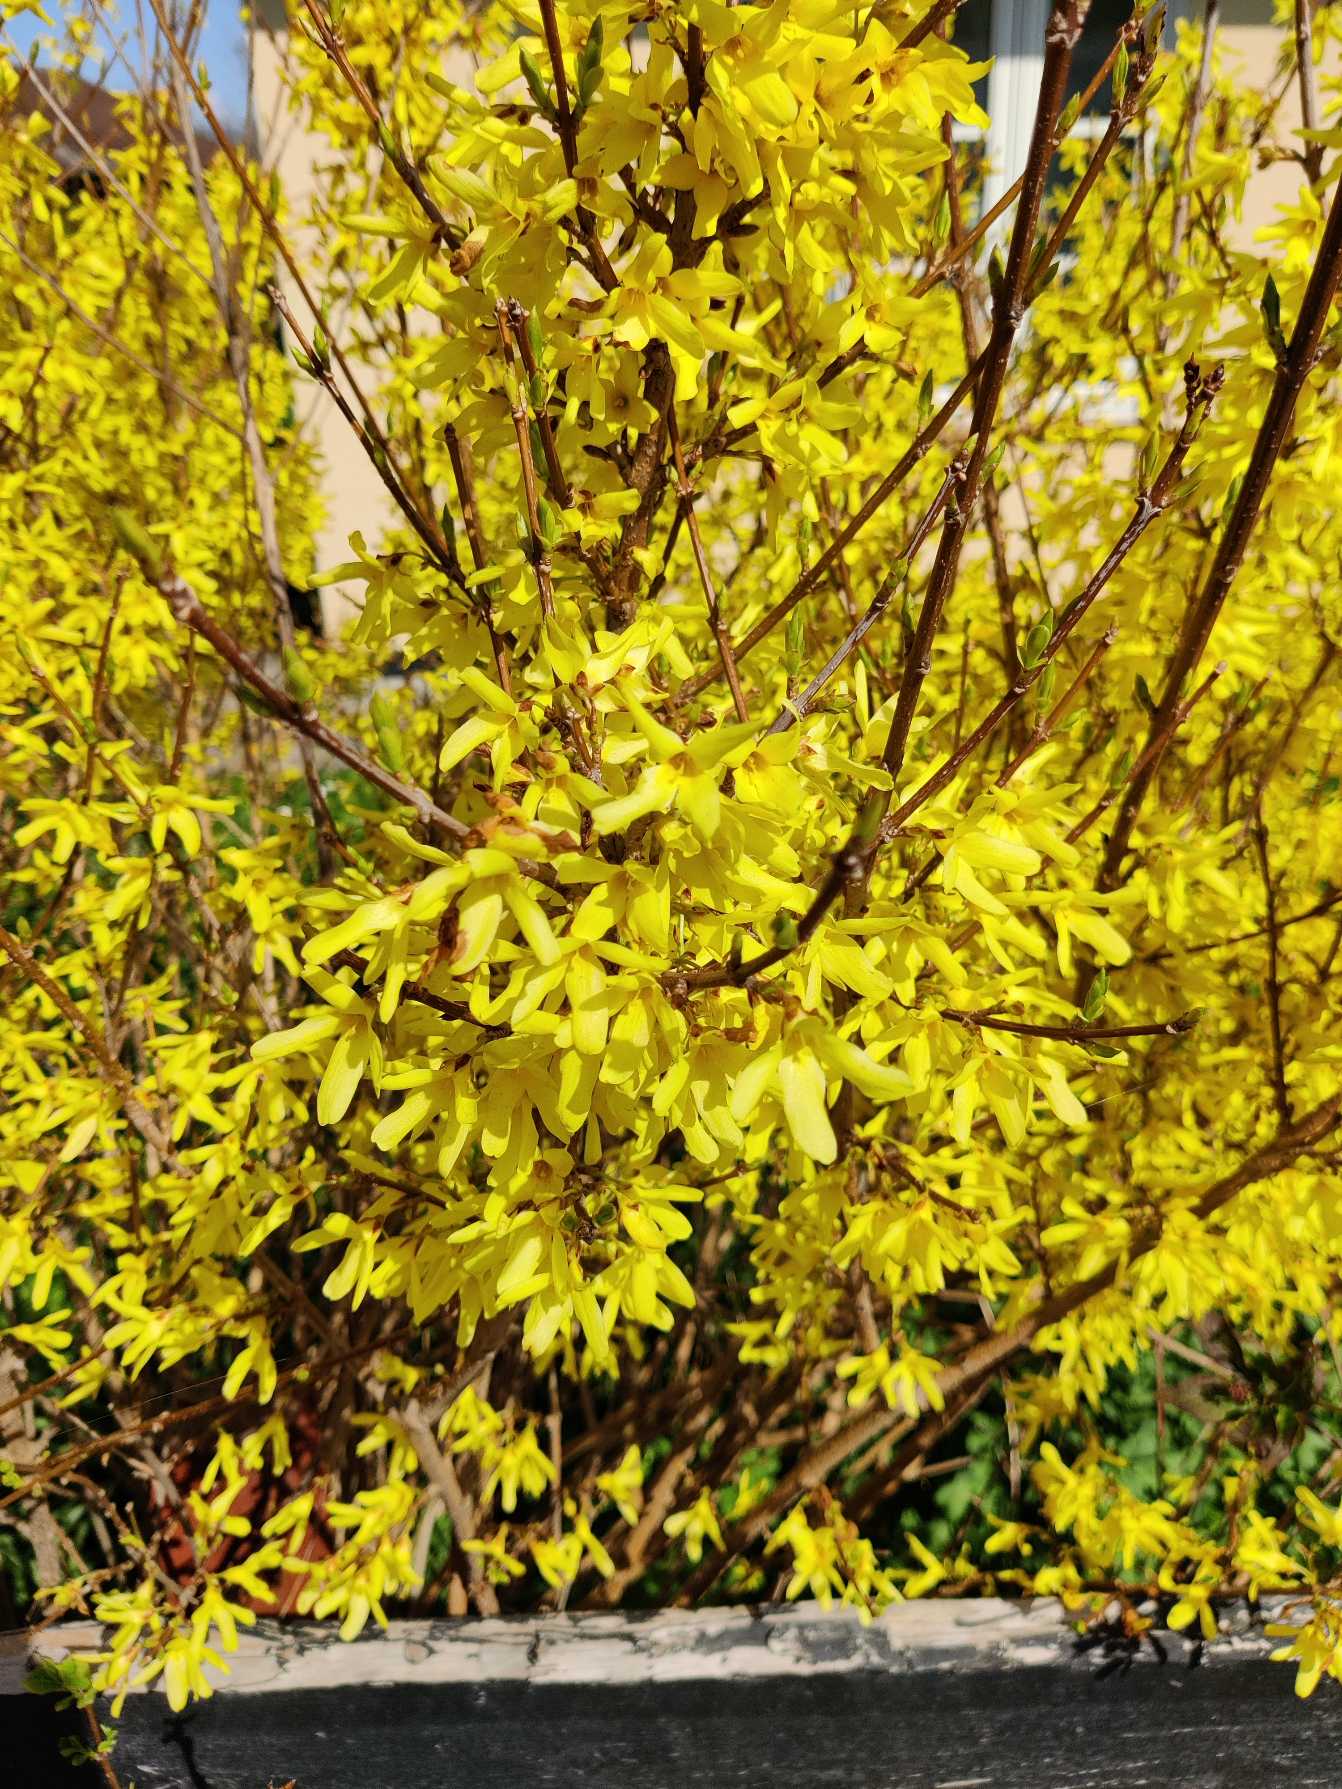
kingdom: Plantae
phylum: Tracheophyta
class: Magnoliopsida
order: Lamiales
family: Oleaceae
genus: Forsythia
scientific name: Forsythia intermedia
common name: Have-forsythia
